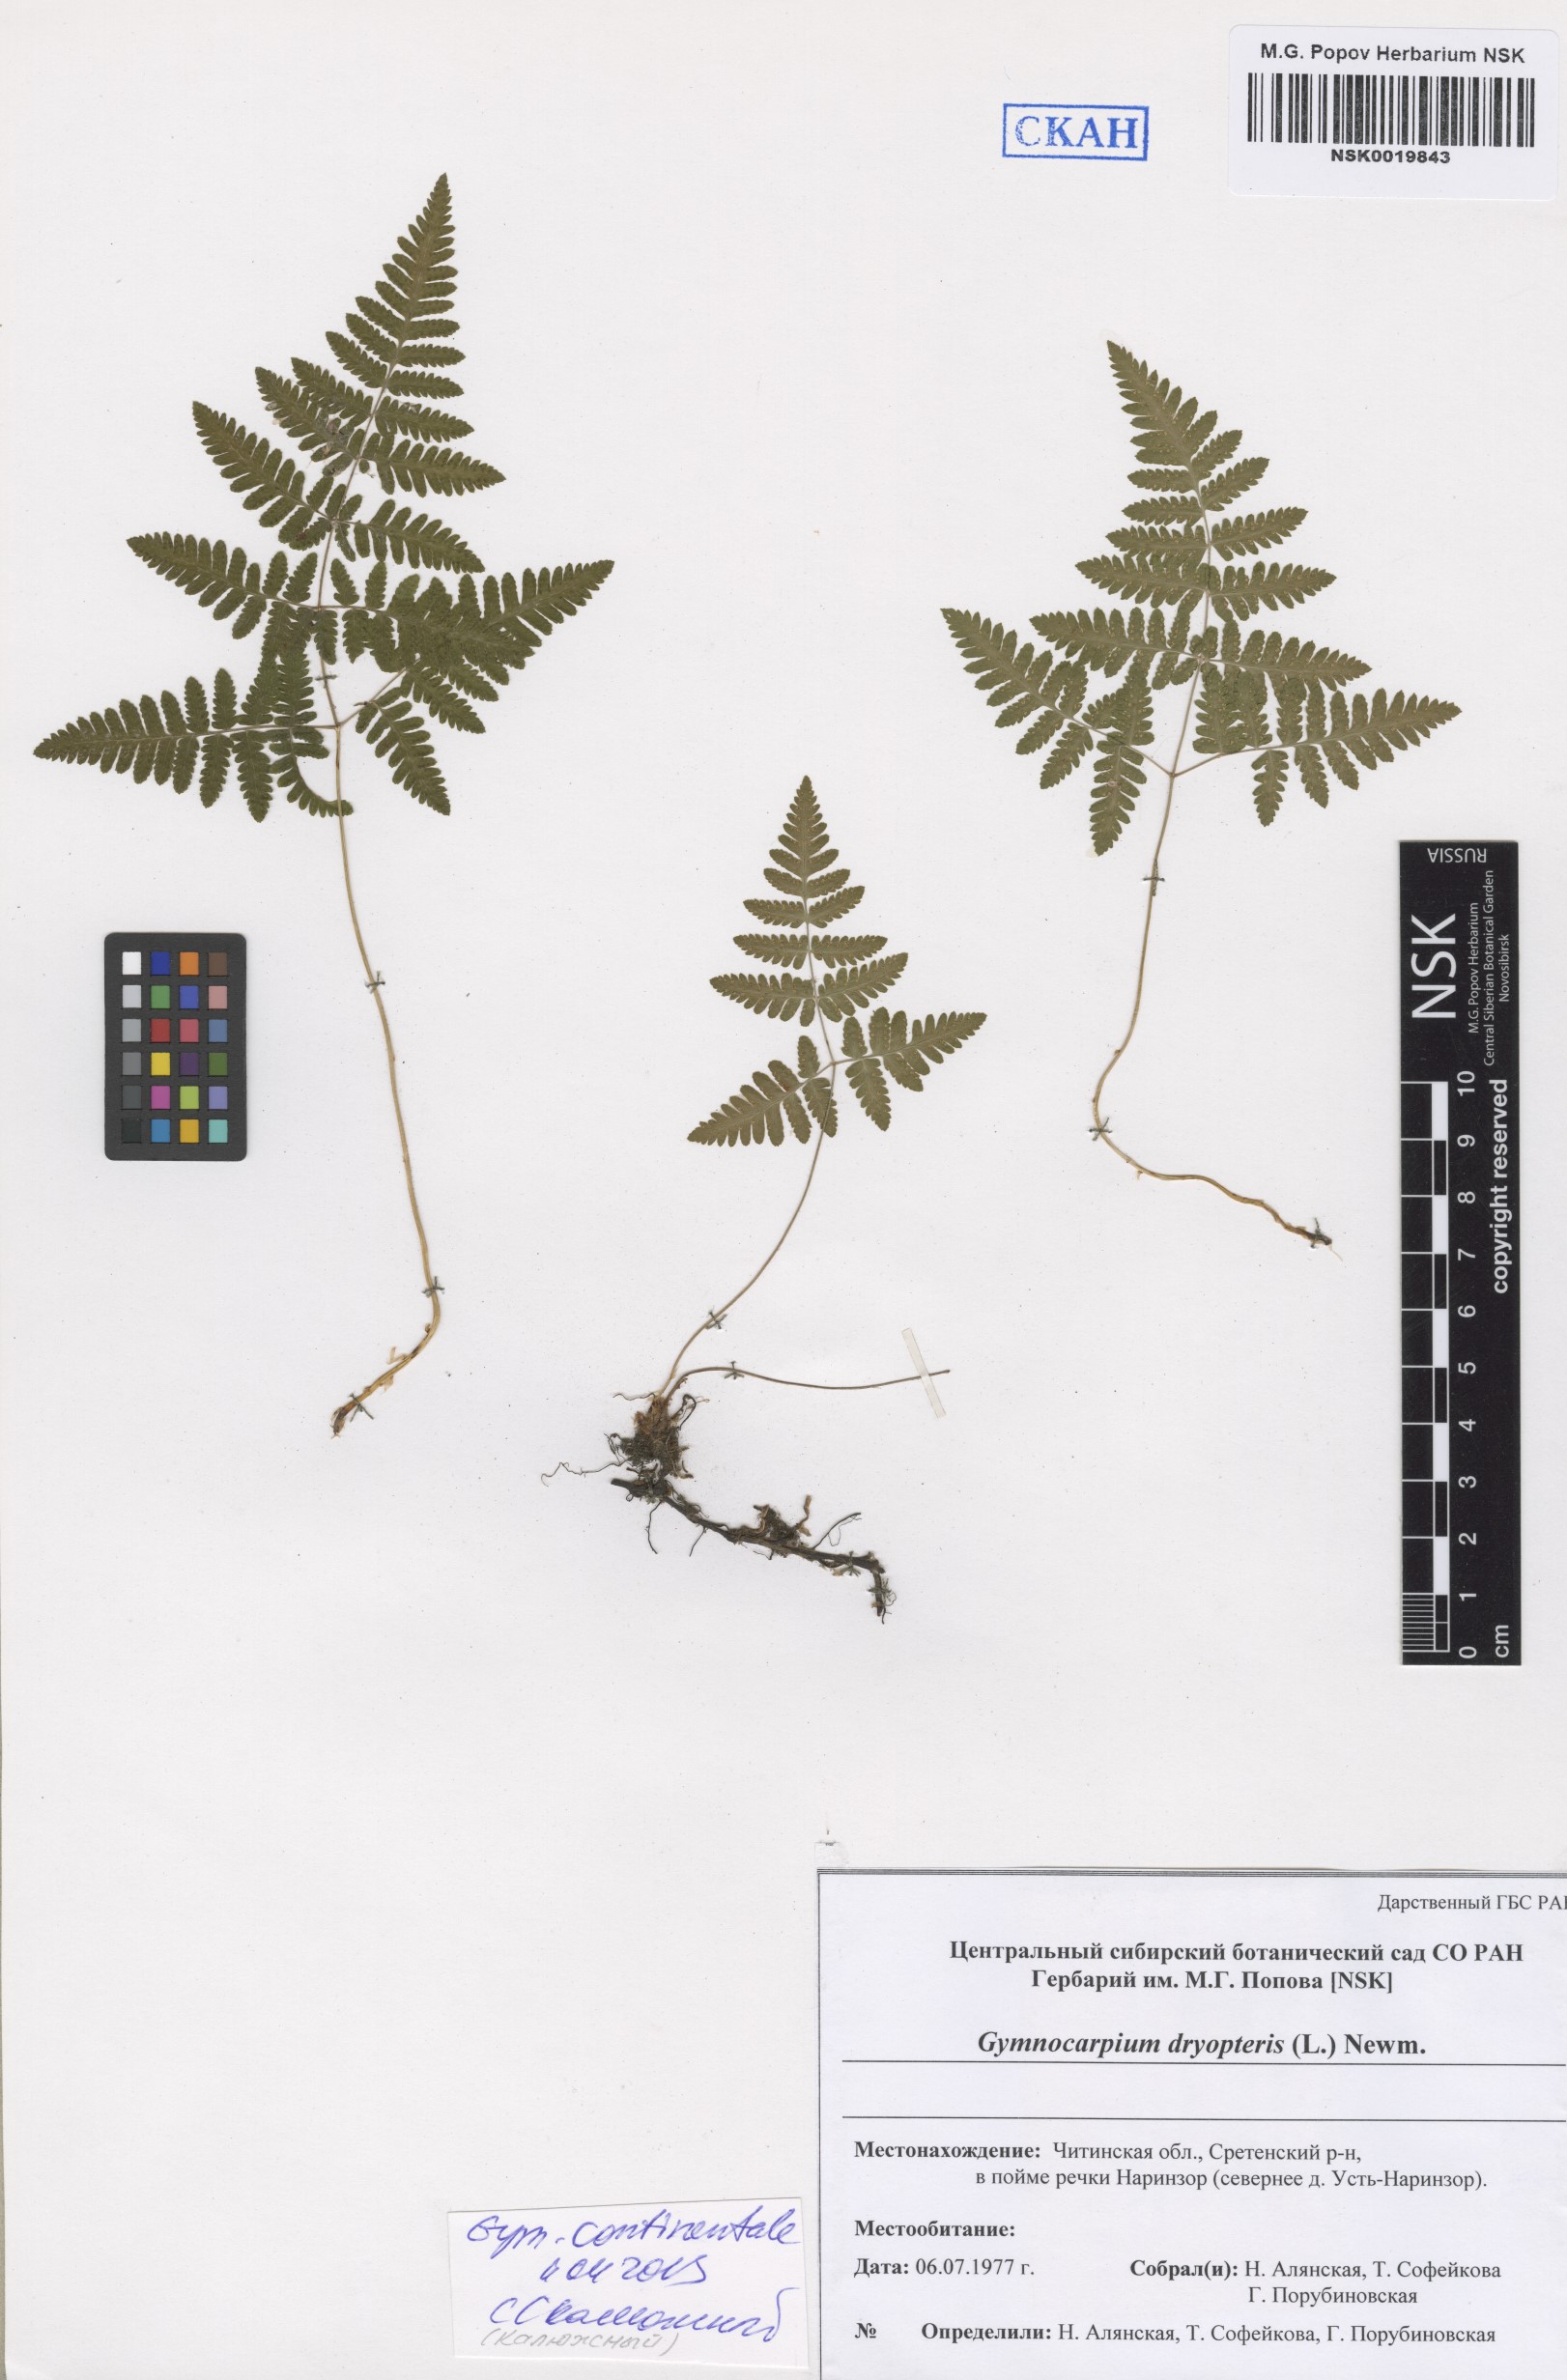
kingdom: Plantae
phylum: Tracheophyta
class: Polypodiopsida
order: Polypodiales
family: Cystopteridaceae
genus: Gymnocarpium
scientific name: Gymnocarpium dryopteris
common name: Oak fern
